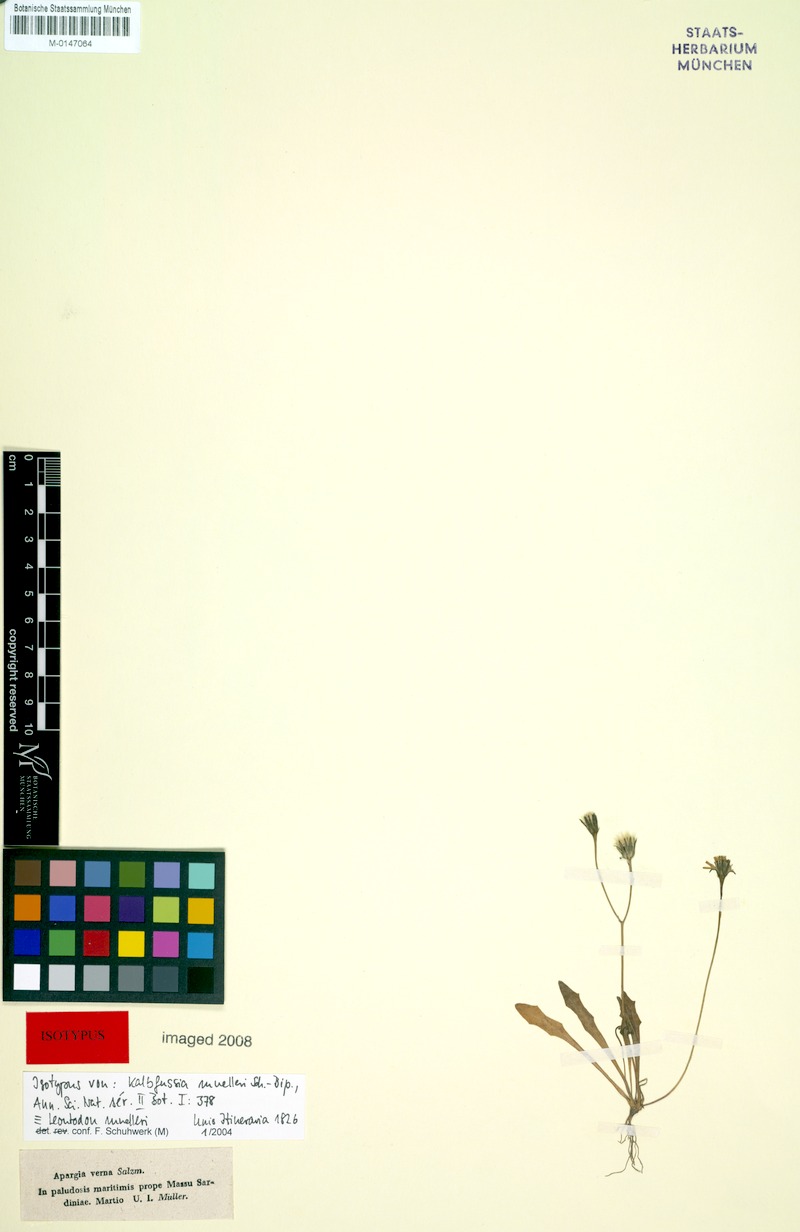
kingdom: Plantae
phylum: Tracheophyta
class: Magnoliopsida
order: Asterales
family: Asteraceae
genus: Scorzoneroides
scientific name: Scorzoneroides muelleri
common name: Daisy
